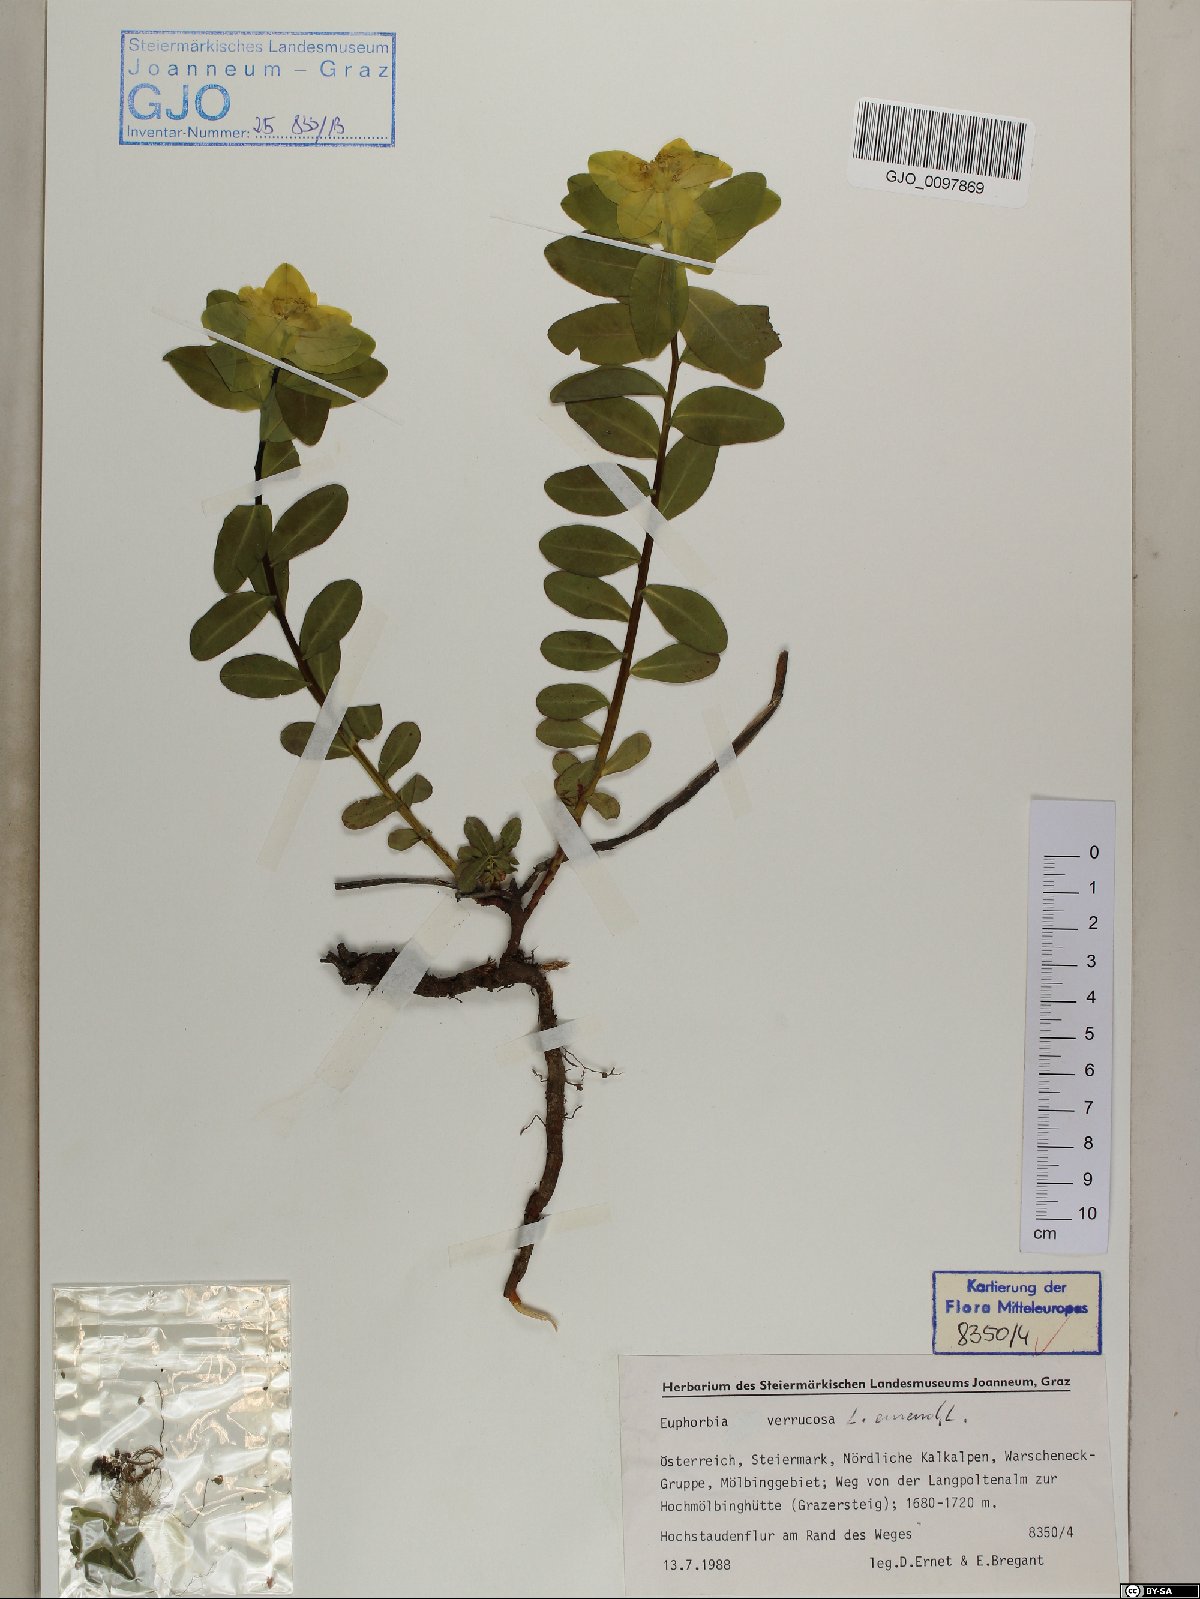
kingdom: Plantae
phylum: Tracheophyta
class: Magnoliopsida
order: Malpighiales
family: Euphorbiaceae
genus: Euphorbia
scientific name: Euphorbia verrucosa
